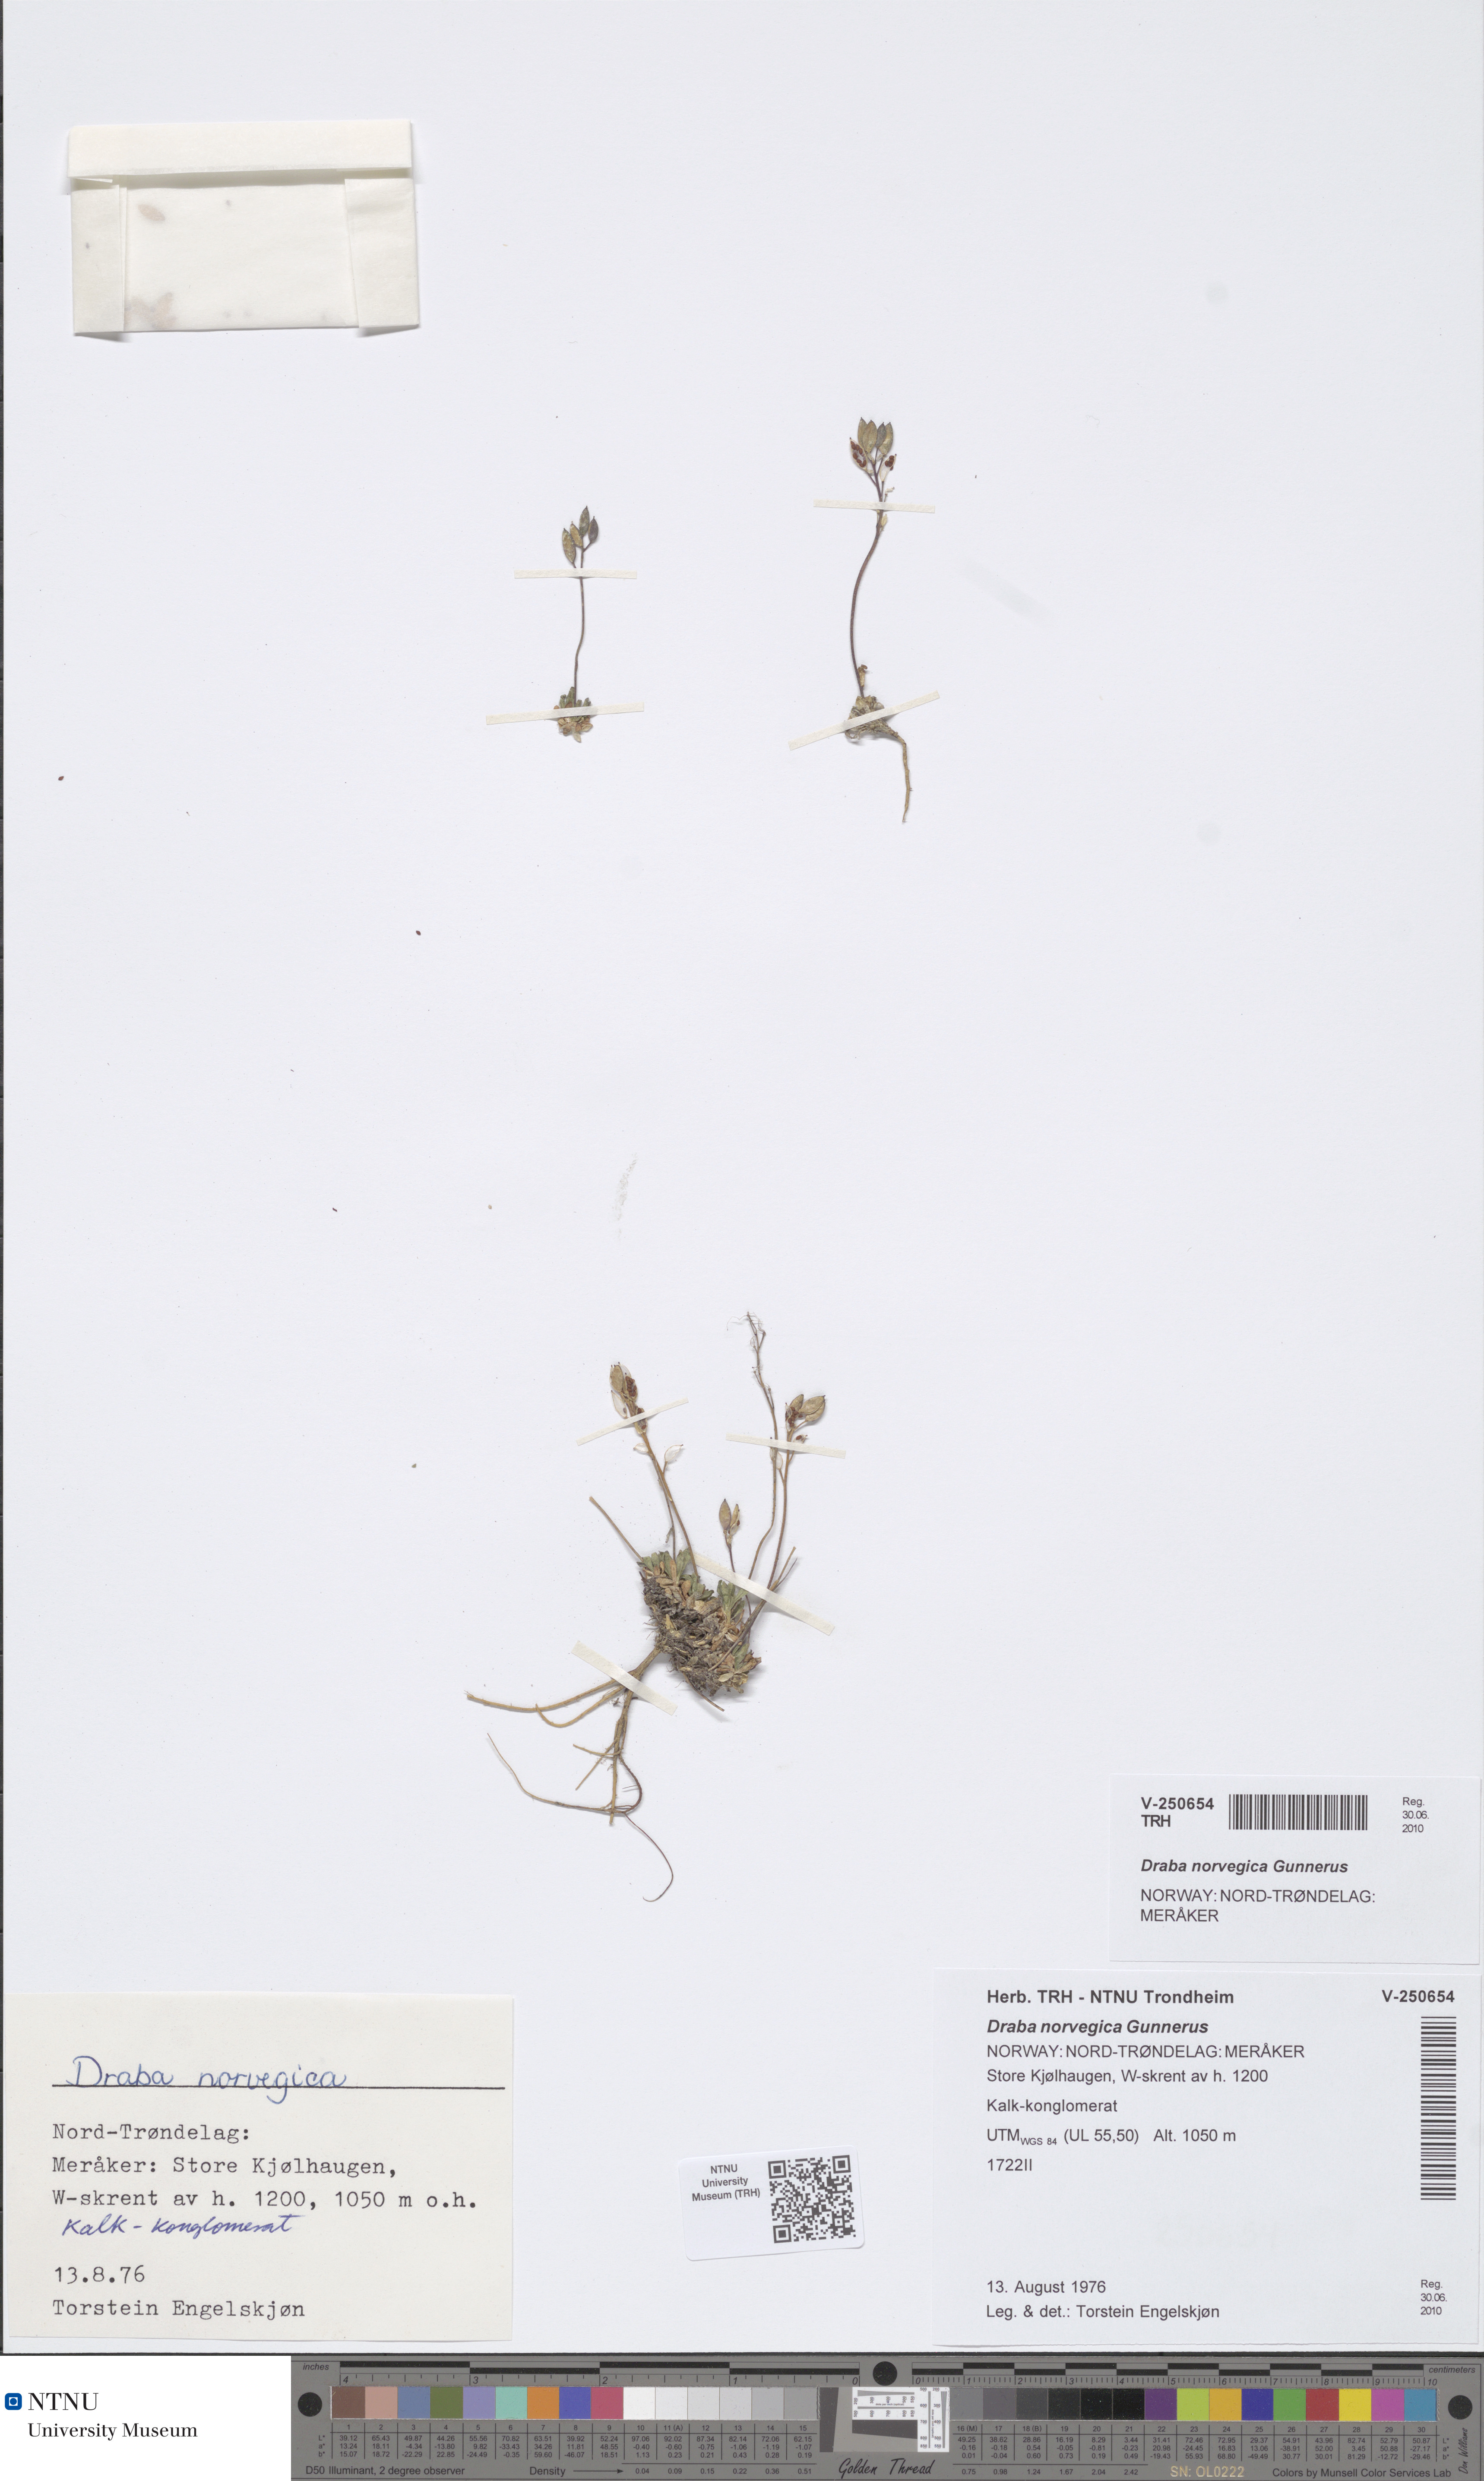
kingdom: Plantae
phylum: Tracheophyta
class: Magnoliopsida
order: Brassicales
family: Brassicaceae
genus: Draba
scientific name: Draba norvegica
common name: Rock whitlowgrass
